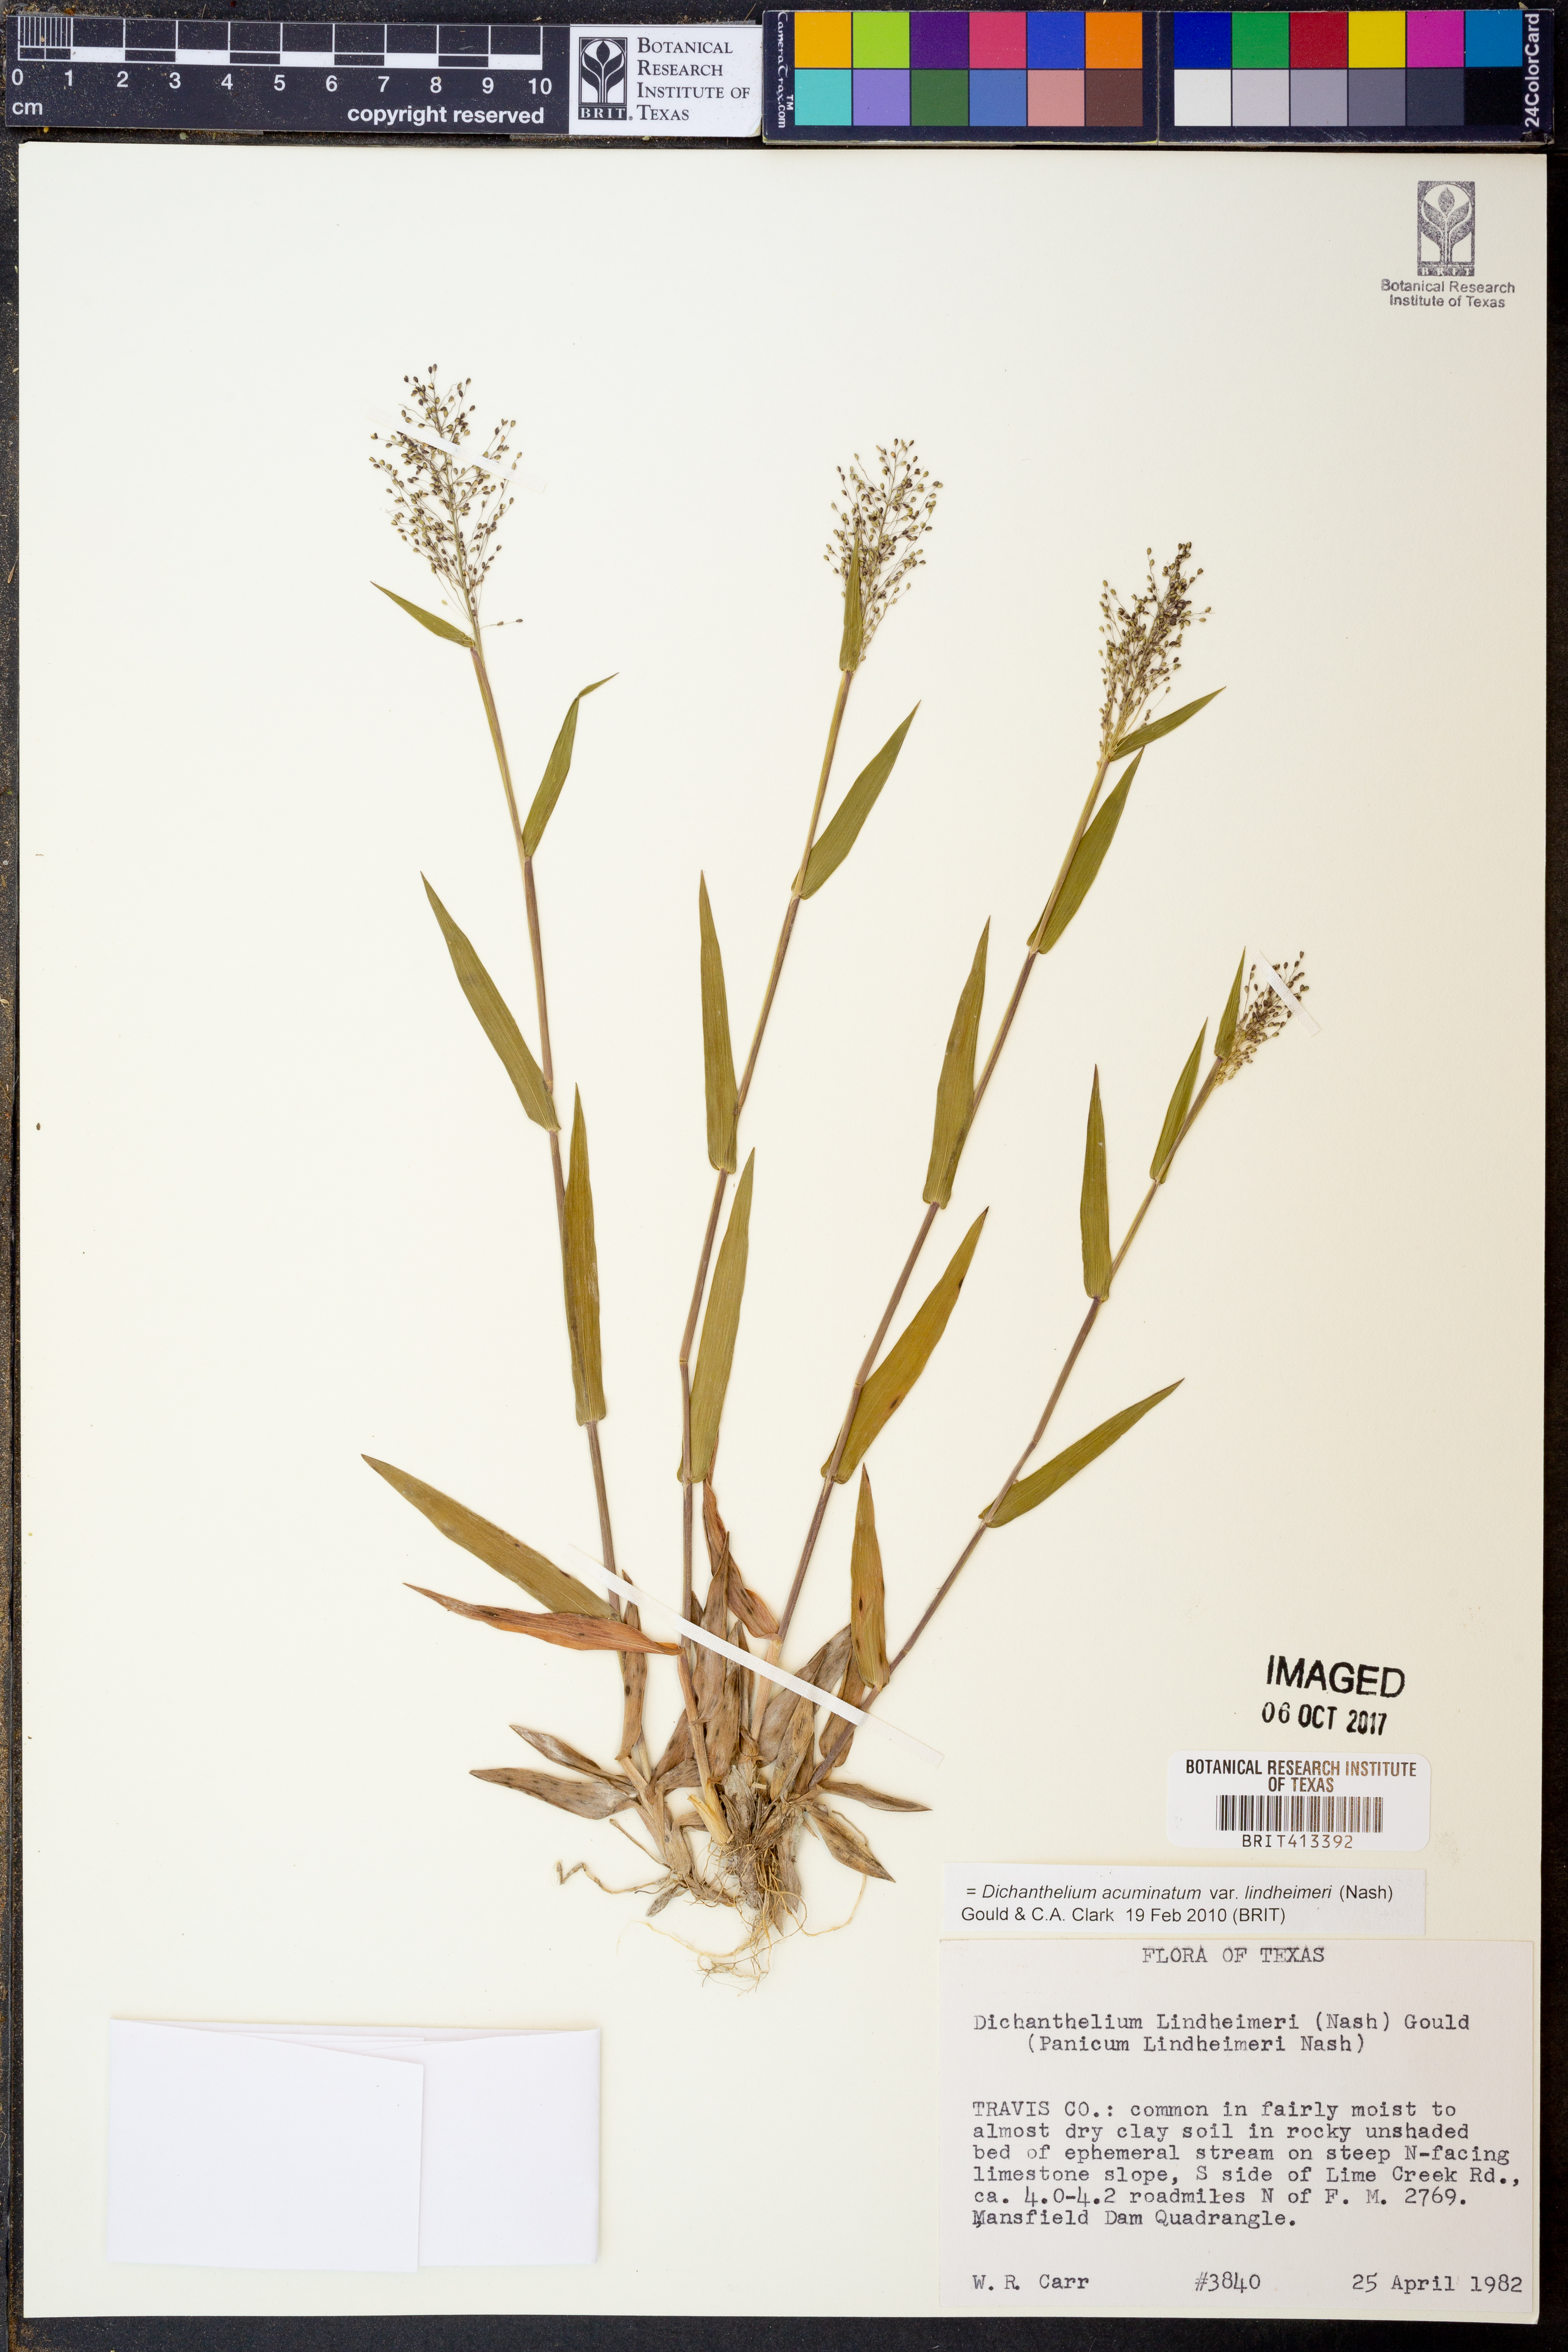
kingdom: Plantae
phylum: Tracheophyta
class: Liliopsida
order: Poales
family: Poaceae
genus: Dichanthelium
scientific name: Dichanthelium lindheimeri
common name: Lindheimer's panicgrass
